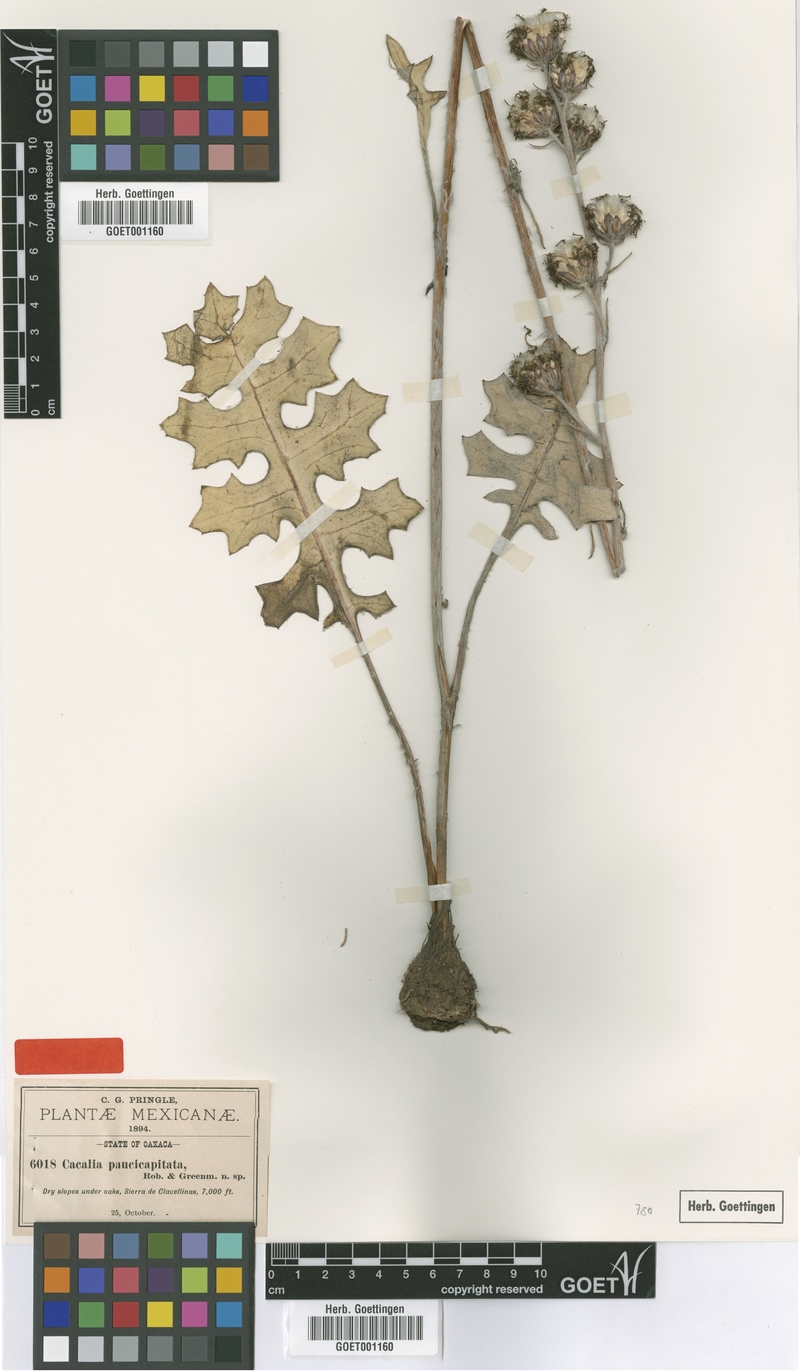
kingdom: Plantae
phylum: Tracheophyta
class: Magnoliopsida
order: Asterales
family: Asteraceae
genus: Psacalium
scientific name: Psacalium paucicapitatum
